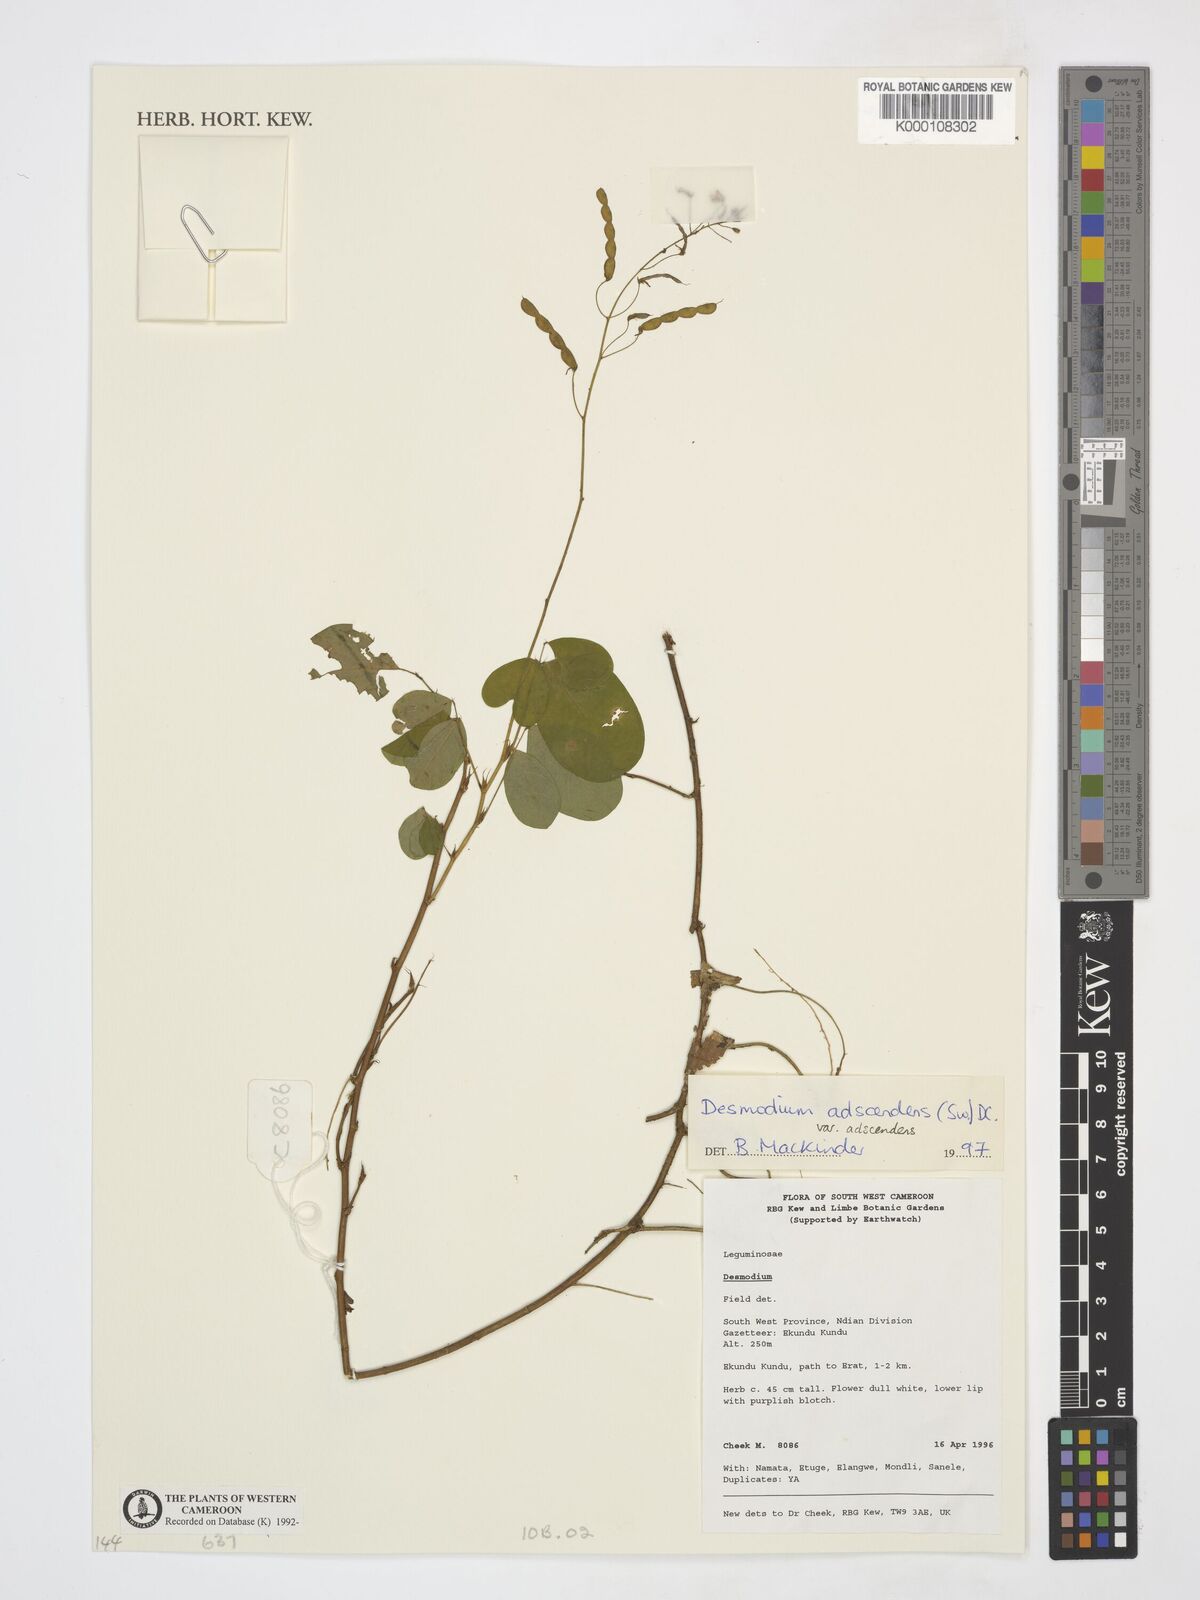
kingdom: Plantae
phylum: Tracheophyta
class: Magnoliopsida
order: Fabales
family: Fabaceae
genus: Grona
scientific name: Grona adscendens
